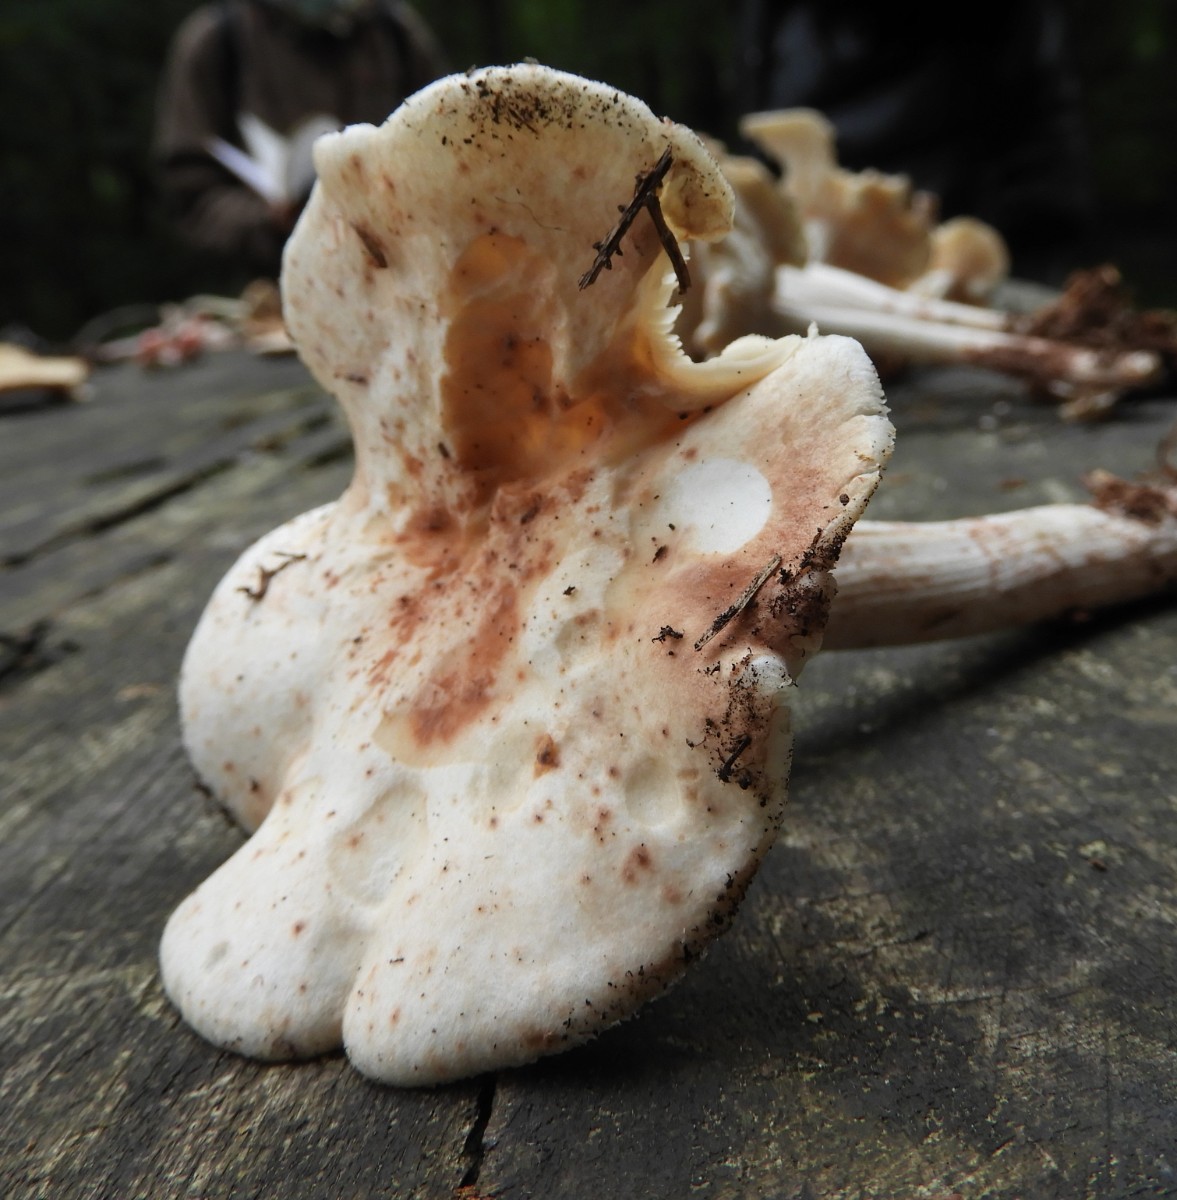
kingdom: Fungi
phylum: Basidiomycota
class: Agaricomycetes
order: Agaricales
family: Omphalotaceae
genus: Rhodocollybia
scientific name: Rhodocollybia maculata
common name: plettet fladhat
